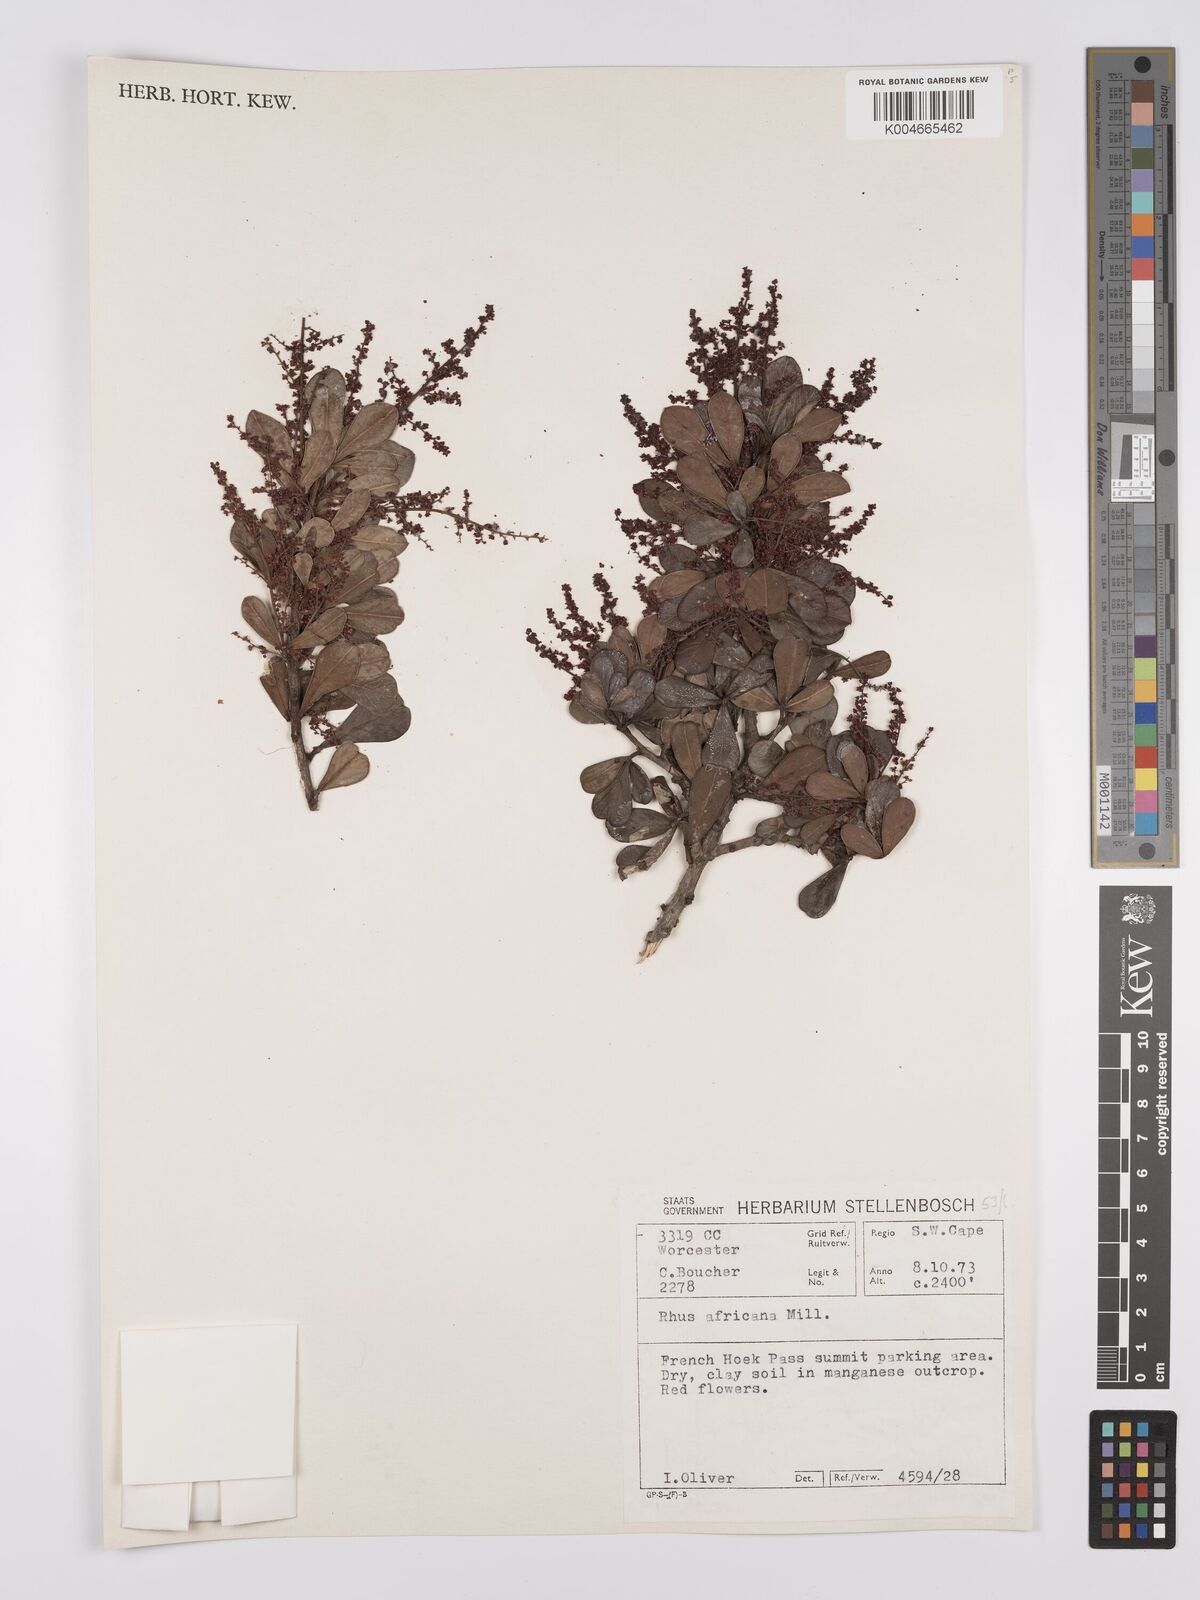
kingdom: Plantae
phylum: Tracheophyta
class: Magnoliopsida
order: Sapindales
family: Anacardiaceae
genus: Searsia
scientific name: Searsia lucida
